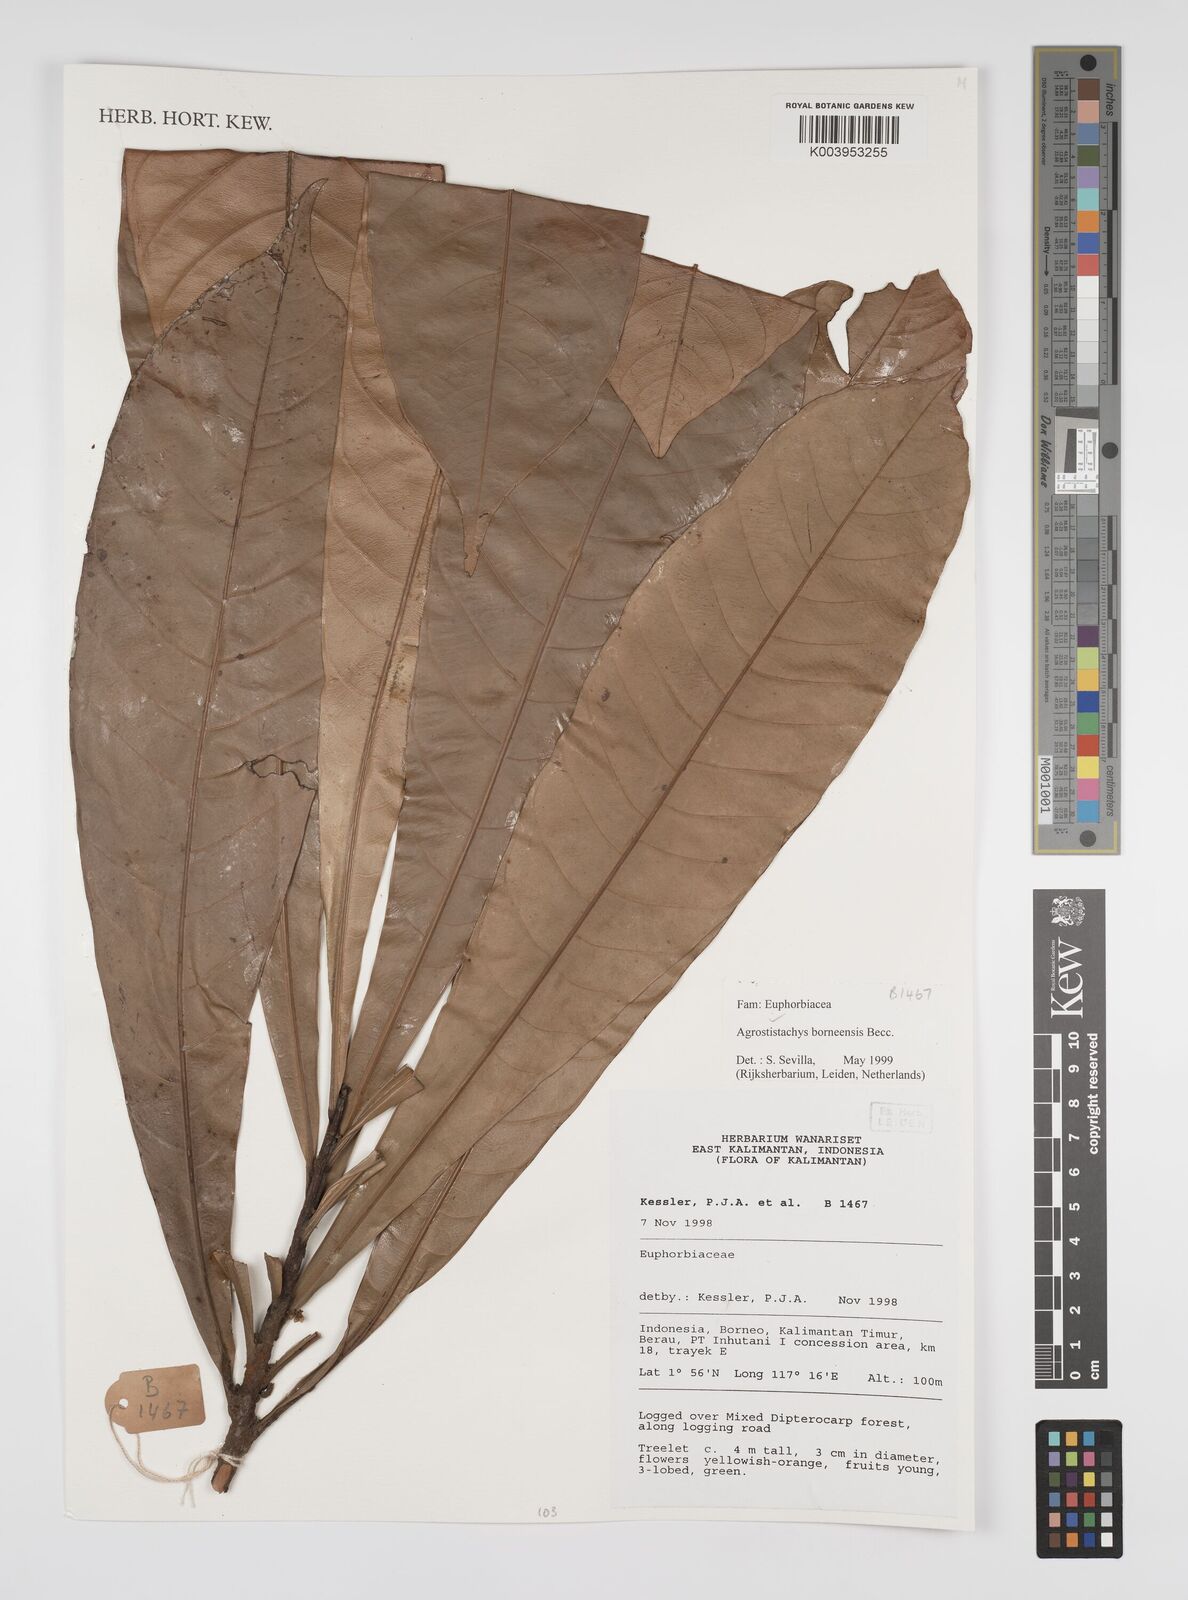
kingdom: Plantae
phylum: Tracheophyta
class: Magnoliopsida
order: Malpighiales
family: Euphorbiaceae
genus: Agrostistachys
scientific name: Agrostistachys borneensis
